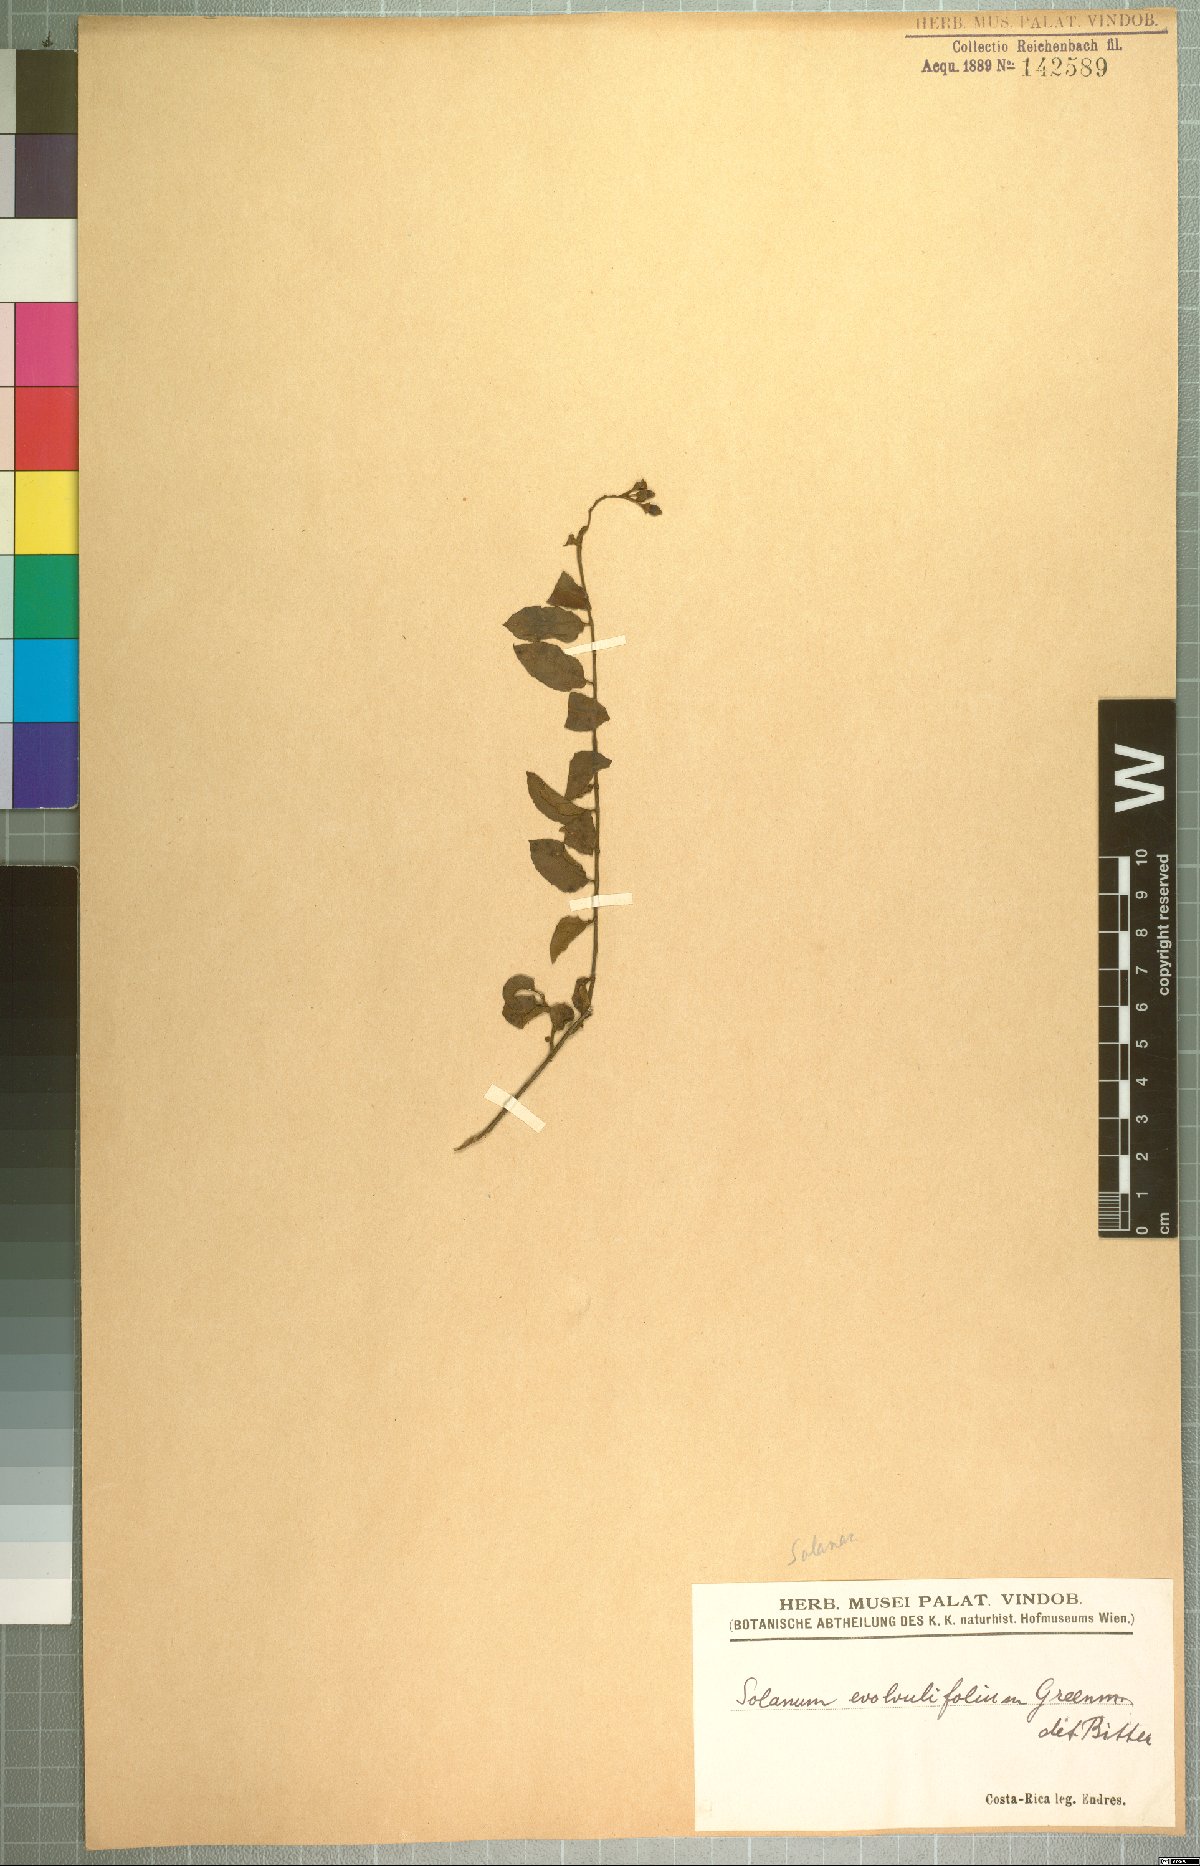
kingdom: Plantae
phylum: Tracheophyta
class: Magnoliopsida
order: Solanales
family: Solanaceae
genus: Solanum
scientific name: Solanum evolvulifolium
